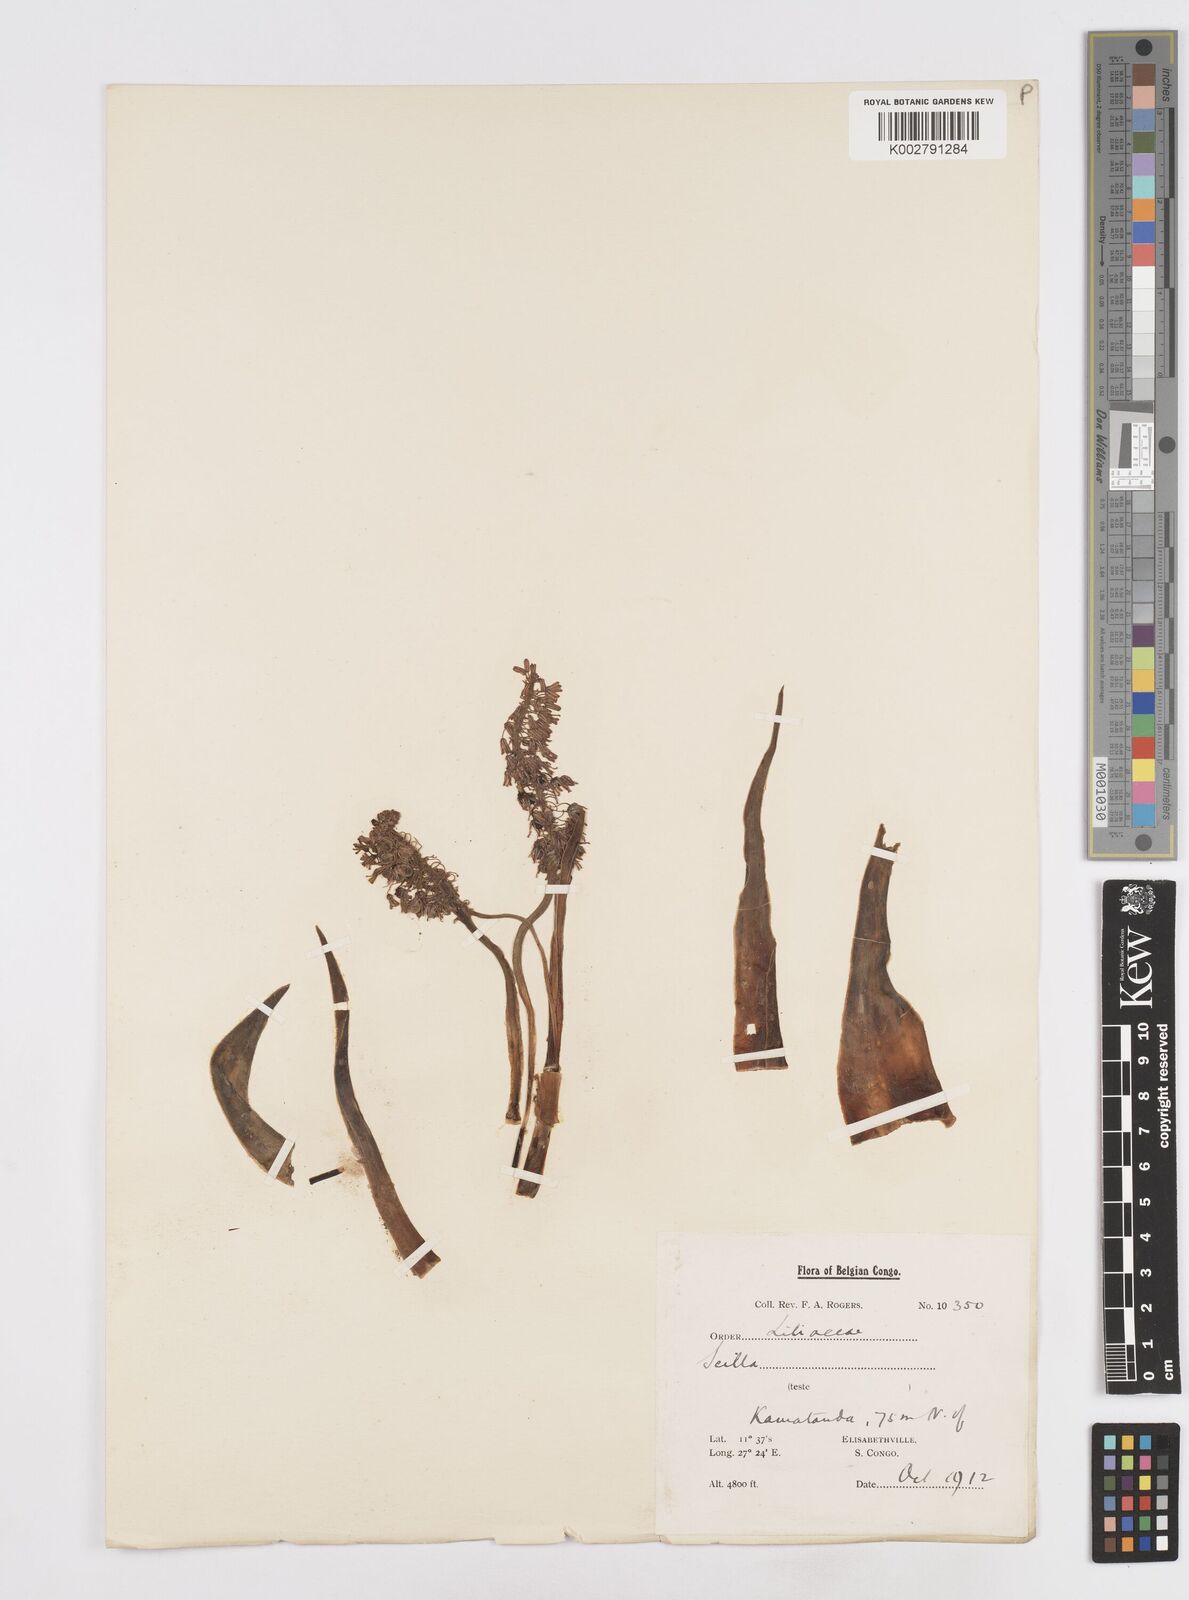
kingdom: Plantae
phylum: Tracheophyta
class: Liliopsida
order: Asparagales
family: Asparagaceae
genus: Scilla
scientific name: Scilla
